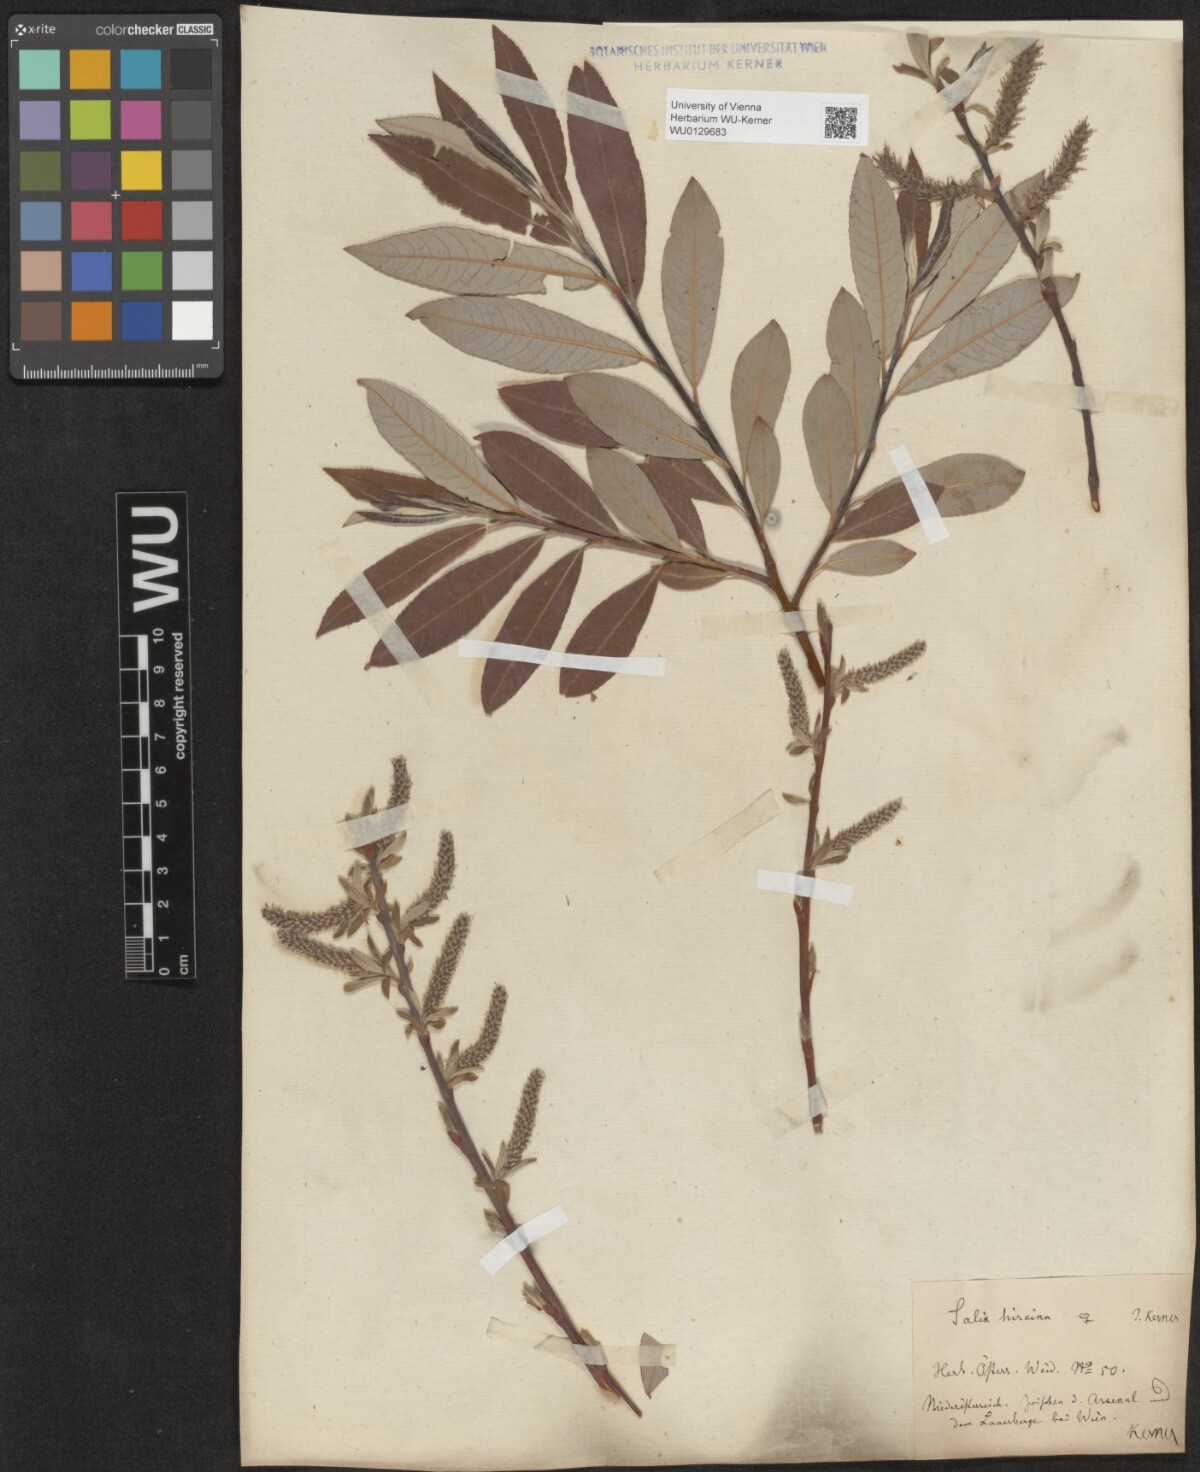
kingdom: Plantae
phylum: Tracheophyta
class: Magnoliopsida
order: Malpighiales
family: Salicaceae
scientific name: Salicaceae
